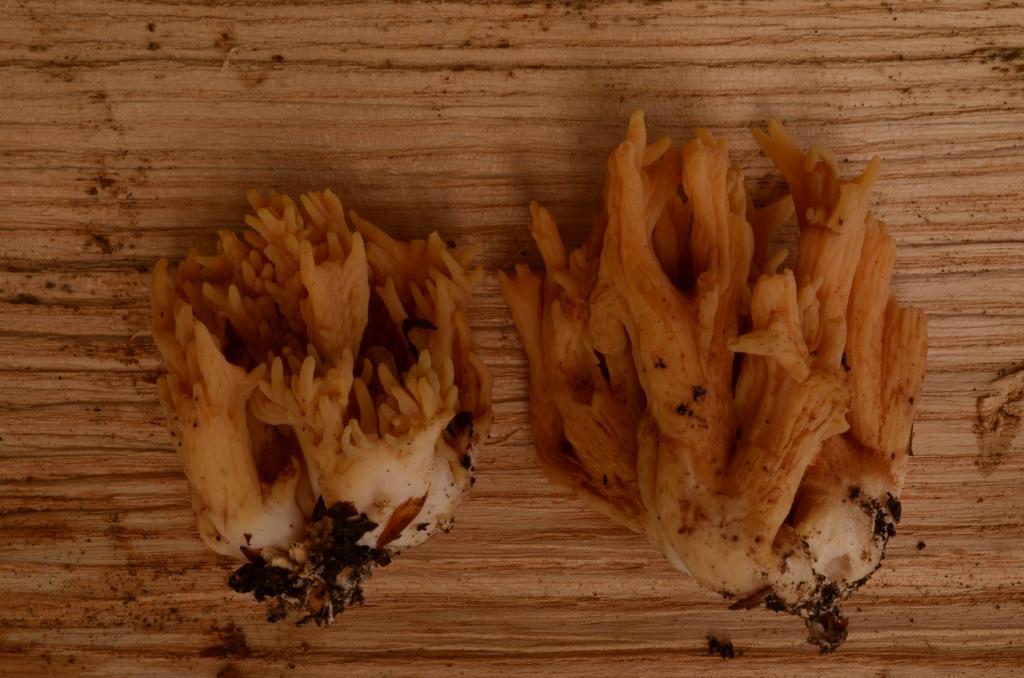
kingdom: Fungi
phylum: Basidiomycota
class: Agaricomycetes
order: Gomphales
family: Gomphaceae
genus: Ramaria
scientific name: Ramaria krieglsteineri
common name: smalsporet koralsvamp
